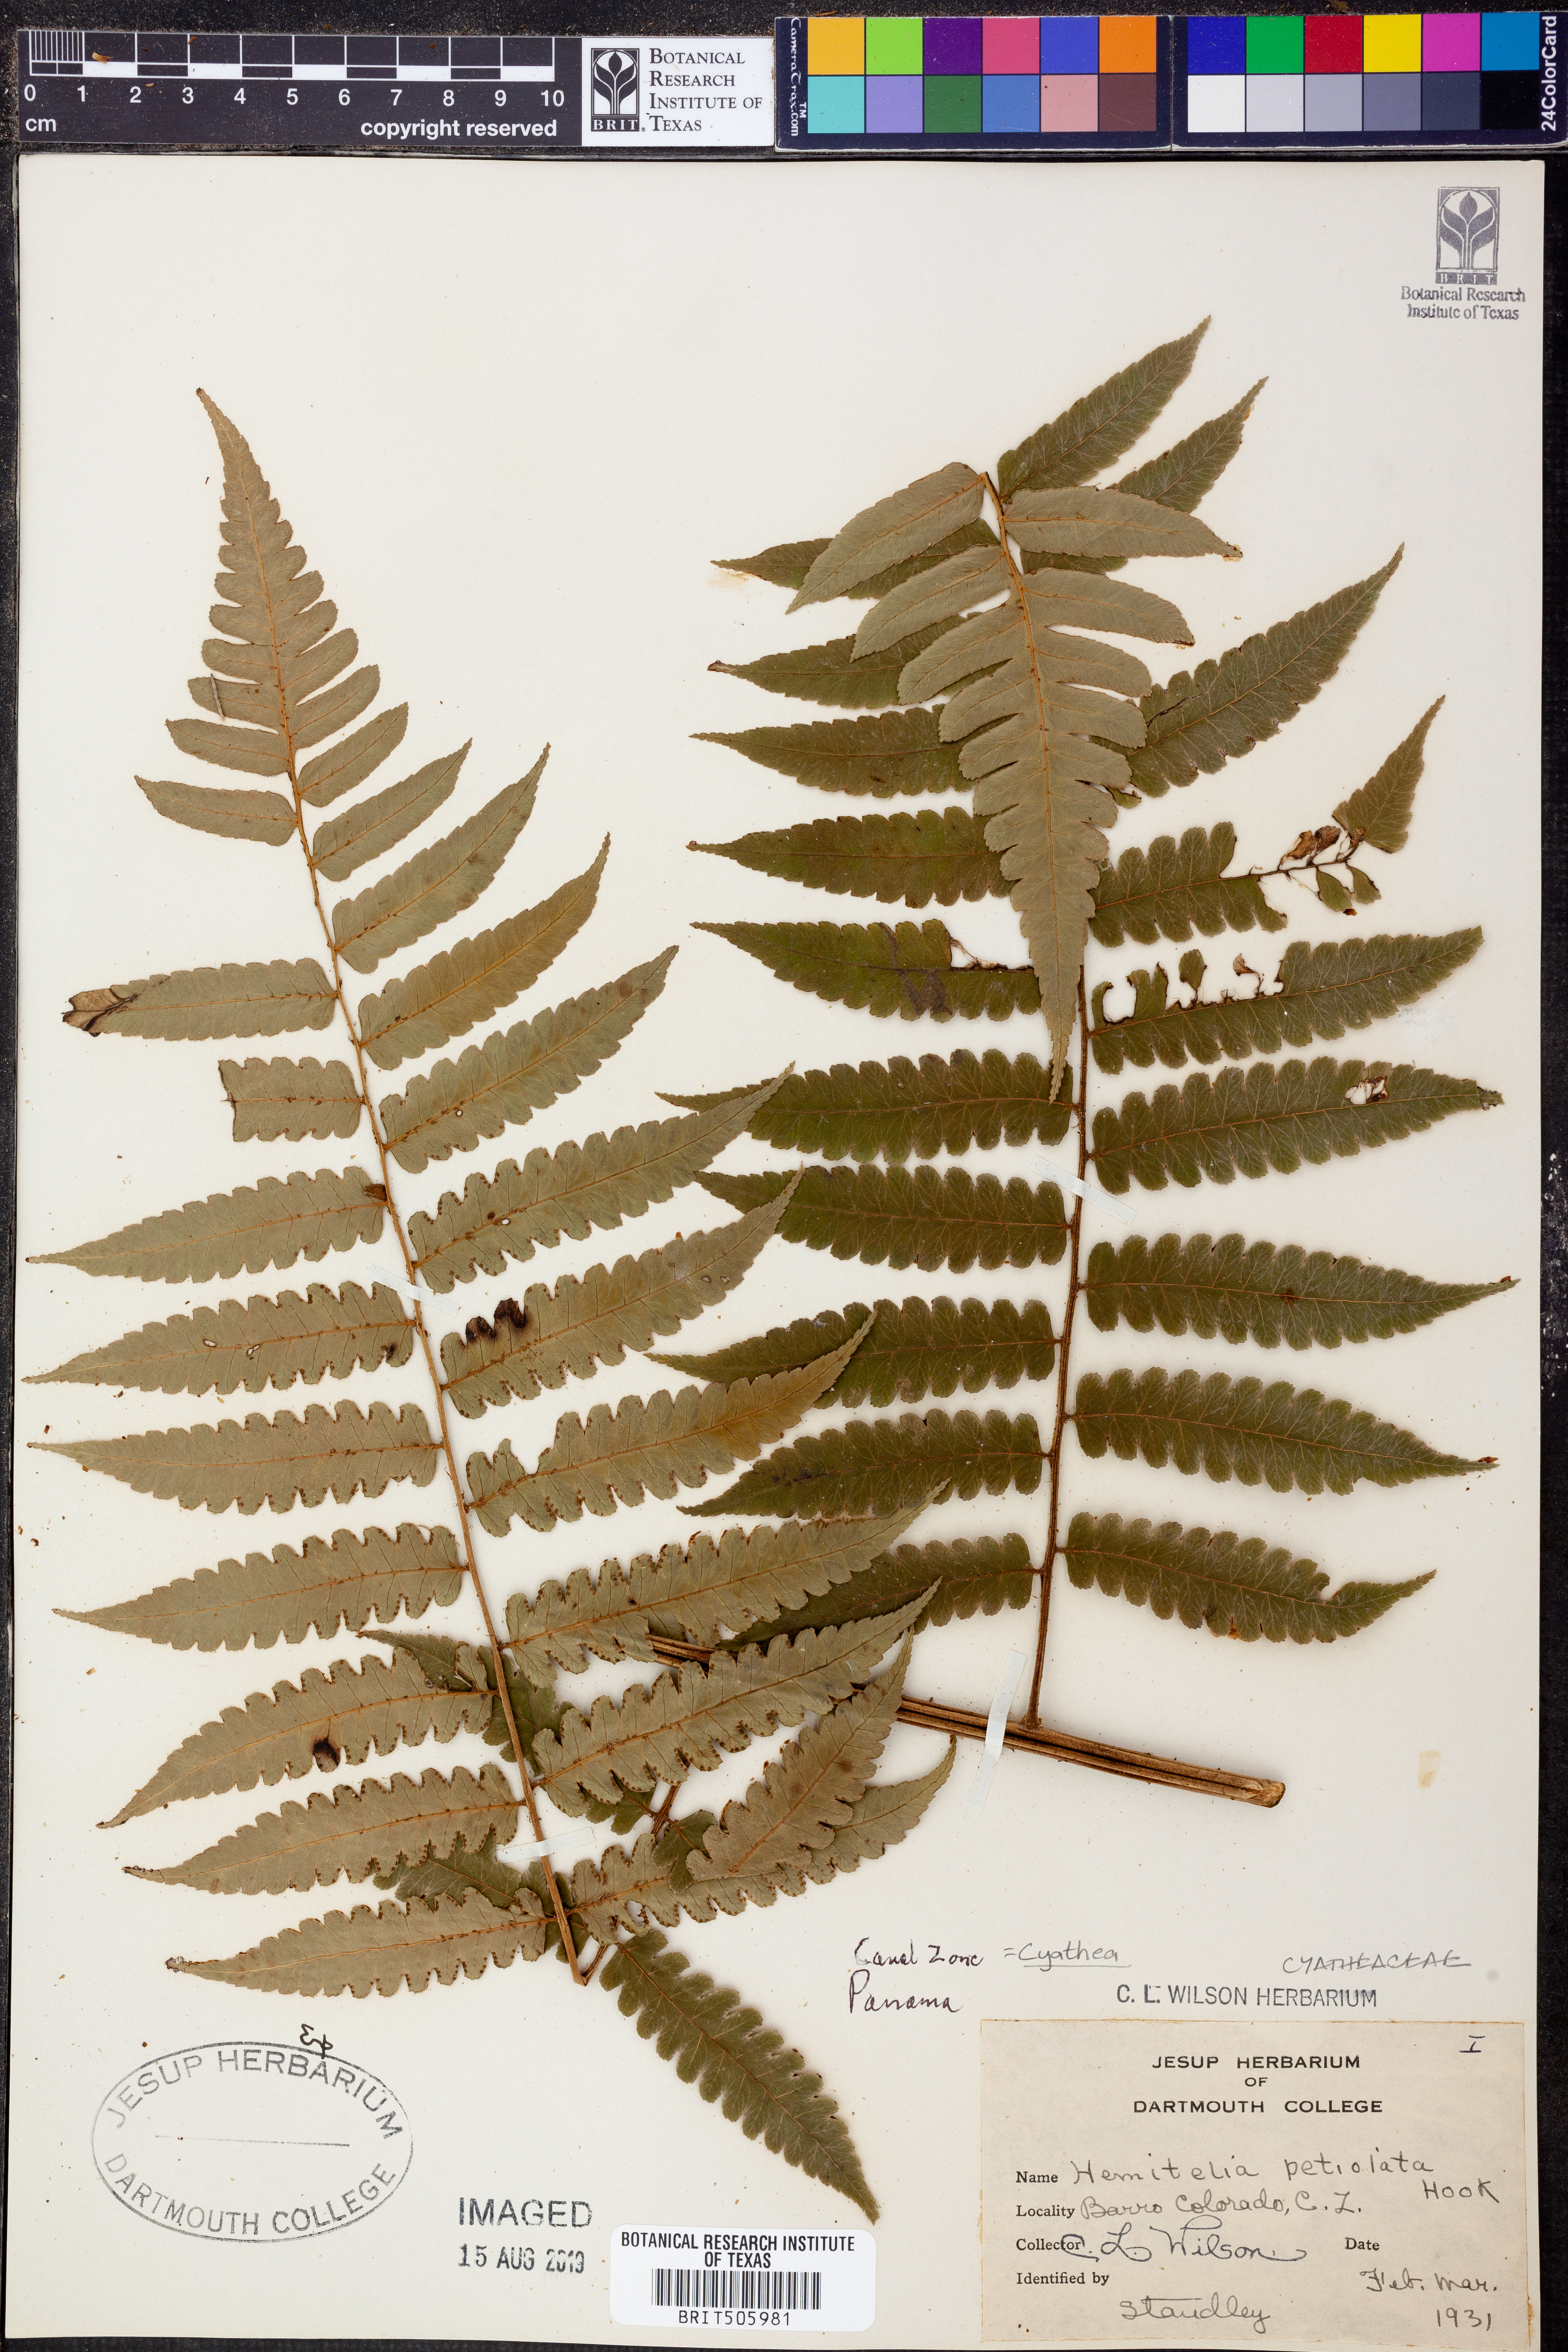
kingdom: Plantae
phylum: Tracheophyta
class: Polypodiopsida
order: Cyatheales
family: Cyatheaceae
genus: Cyathea
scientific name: Cyathea petiolata
